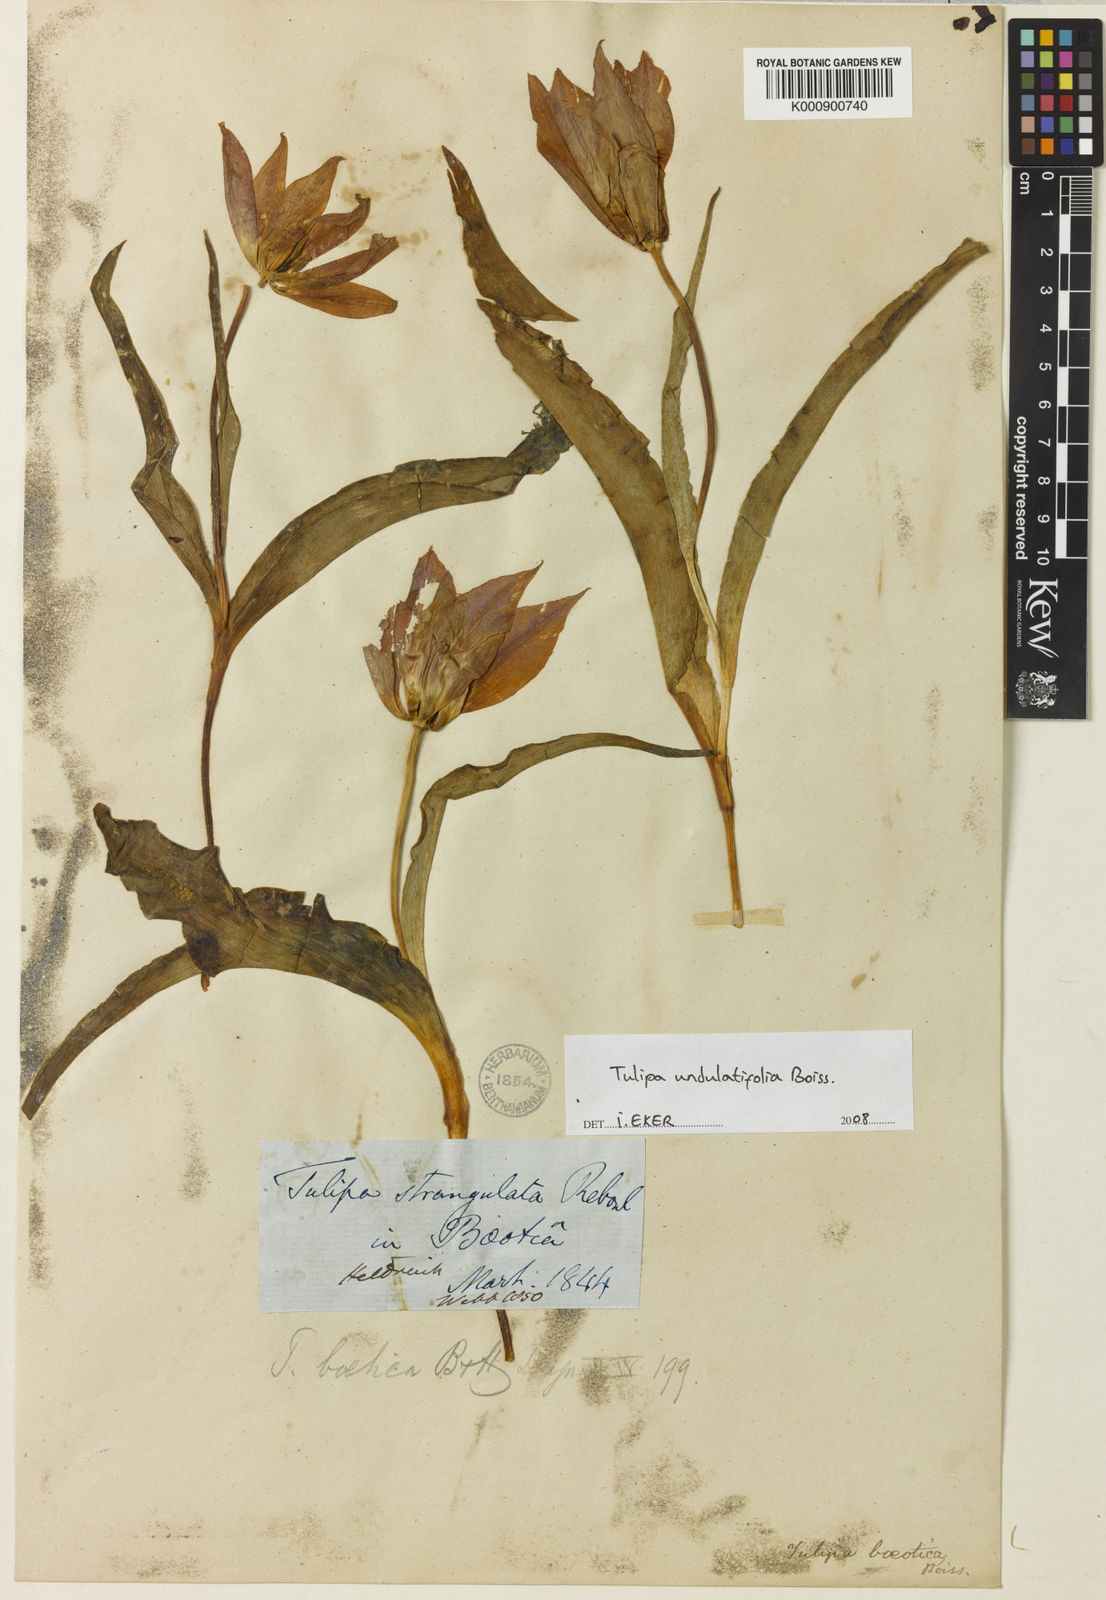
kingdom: Plantae
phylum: Tracheophyta
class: Liliopsida
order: Liliales
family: Liliaceae
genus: Tulipa
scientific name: Tulipa undulatifolia
